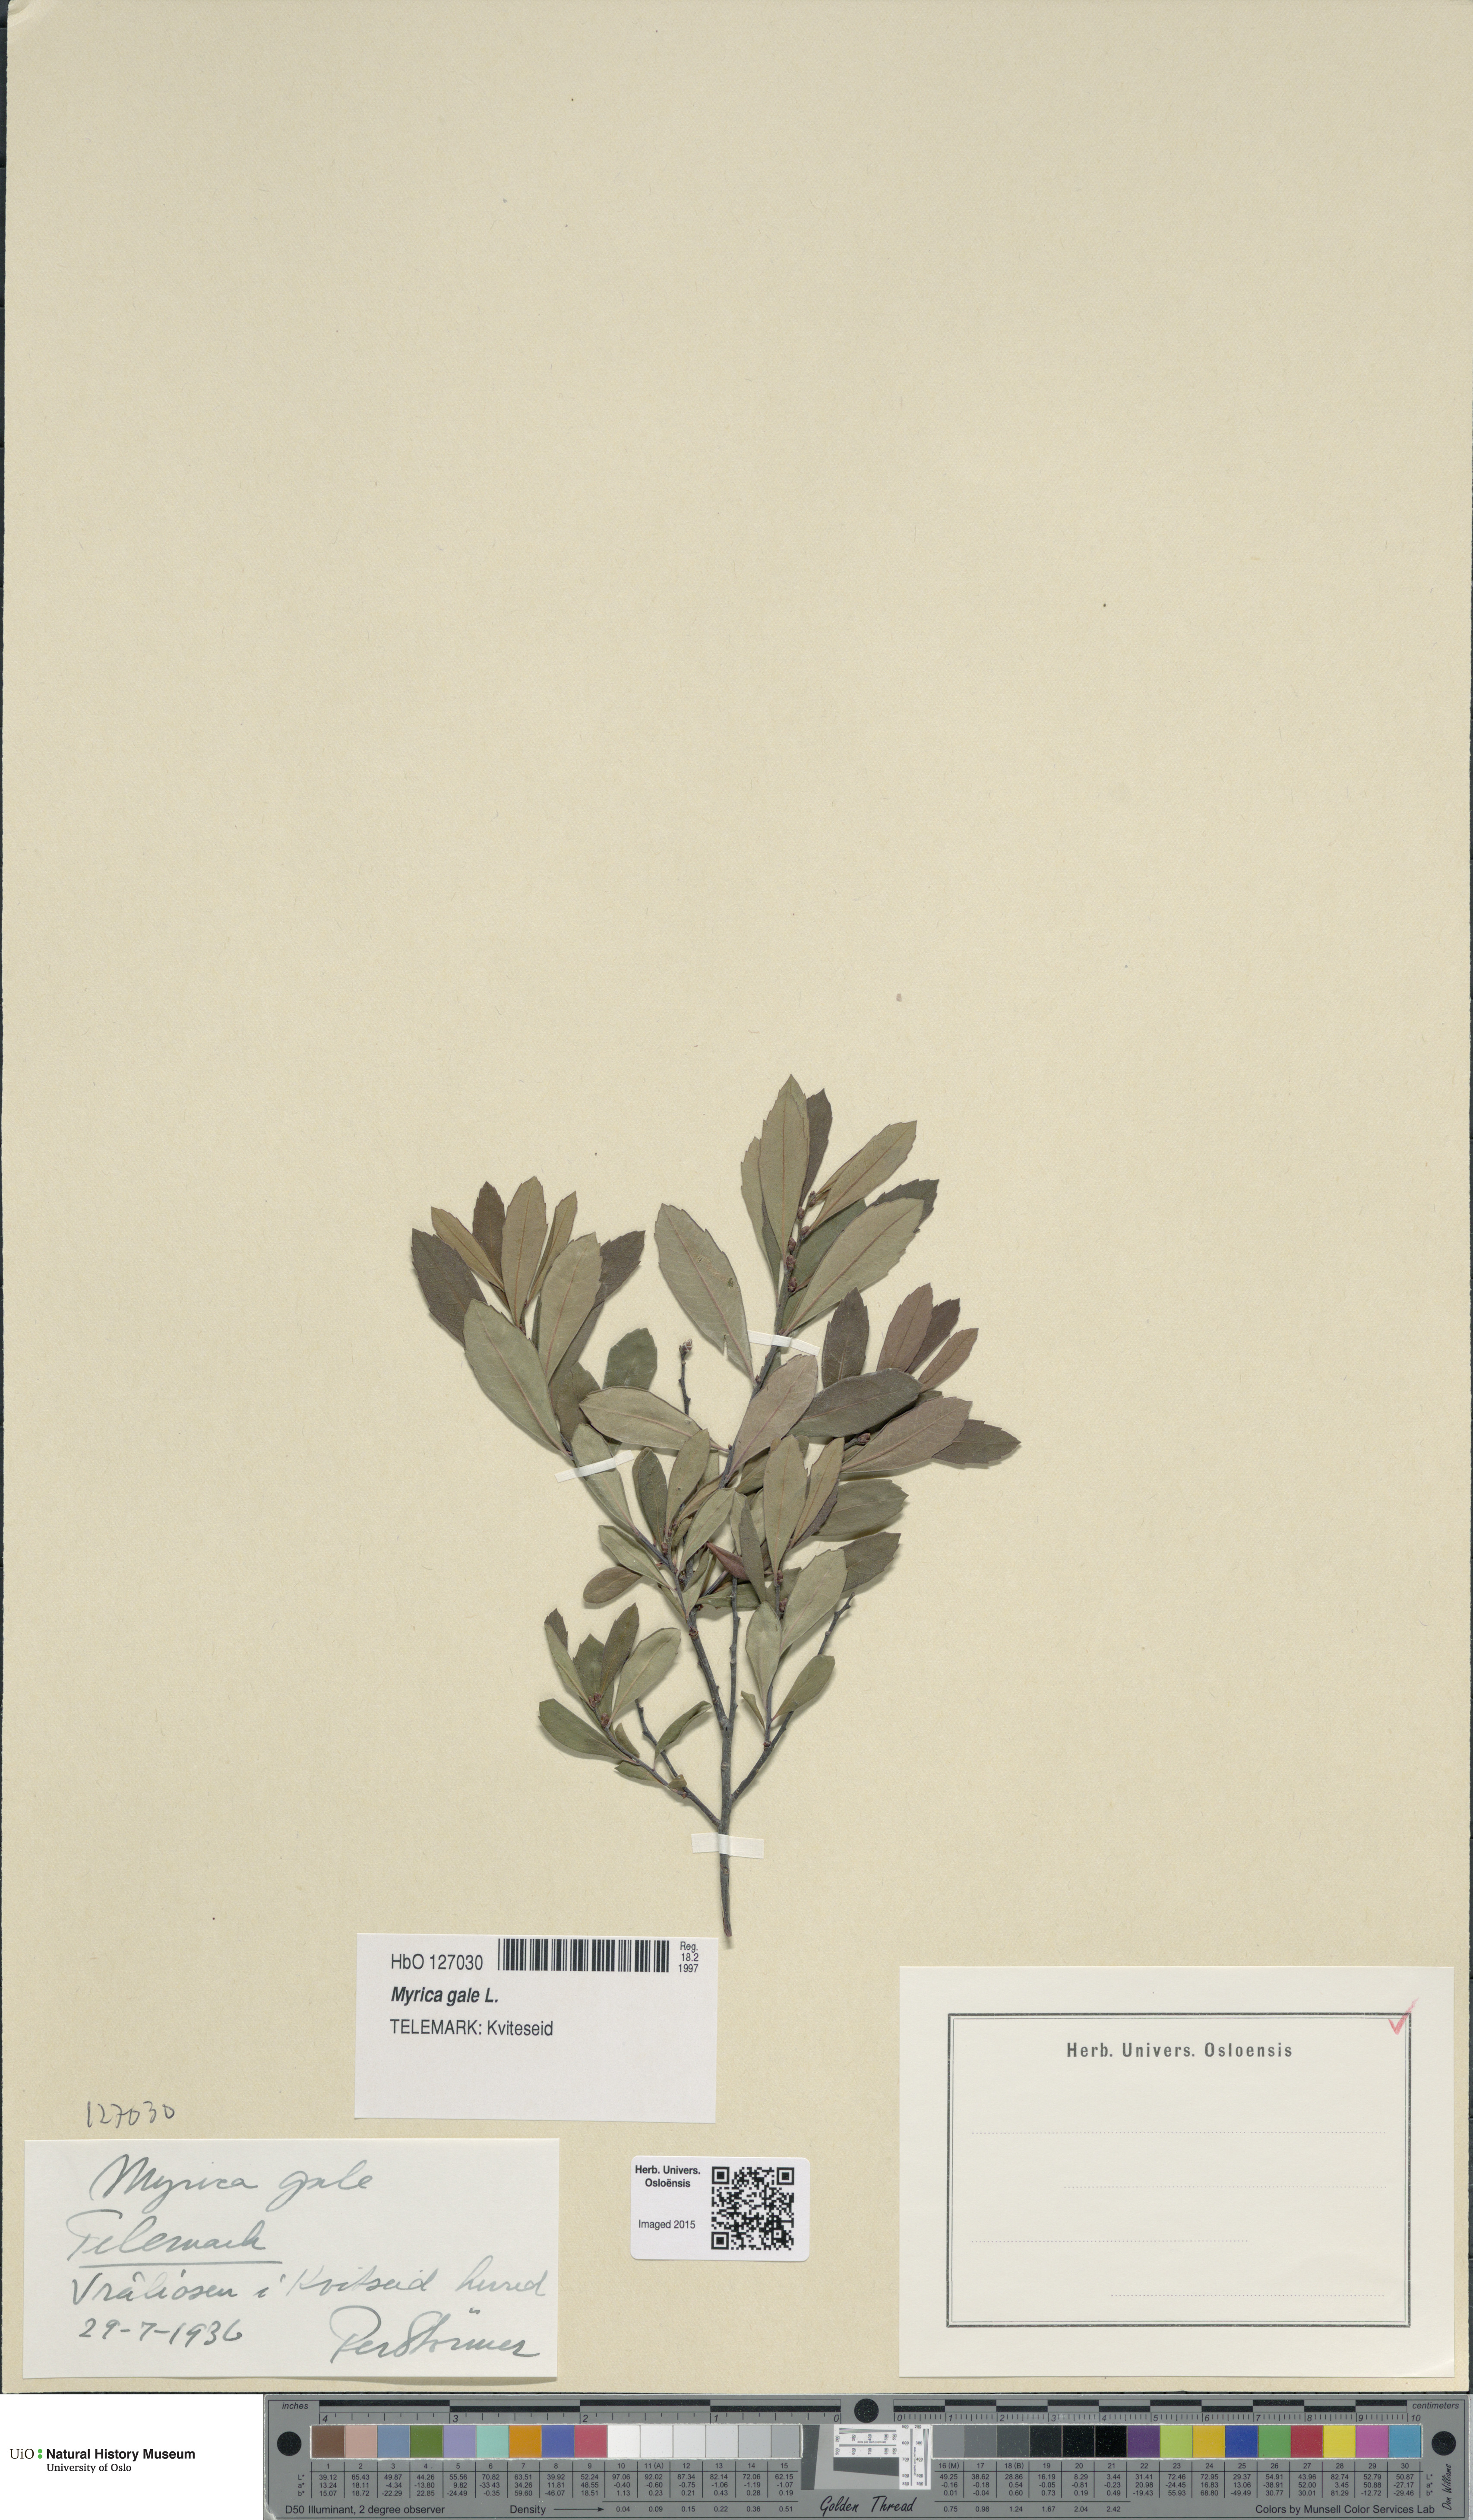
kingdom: Plantae
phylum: Tracheophyta
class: Magnoliopsida
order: Fagales
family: Myricaceae
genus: Myrica
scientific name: Myrica gale
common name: Sweet gale
